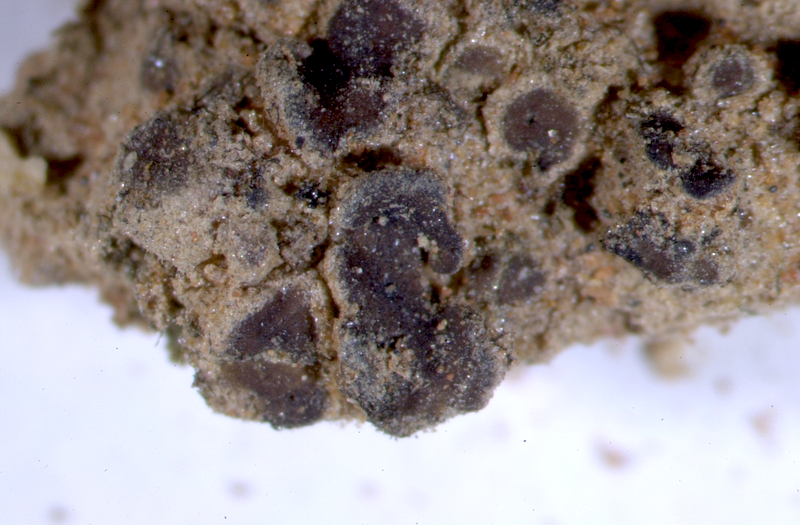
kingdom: Fungi
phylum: Ascomycota
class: Eurotiomycetes
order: Verrucariales
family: Verrucariaceae
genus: Catapyrenium
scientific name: Catapyrenium squamulosum
